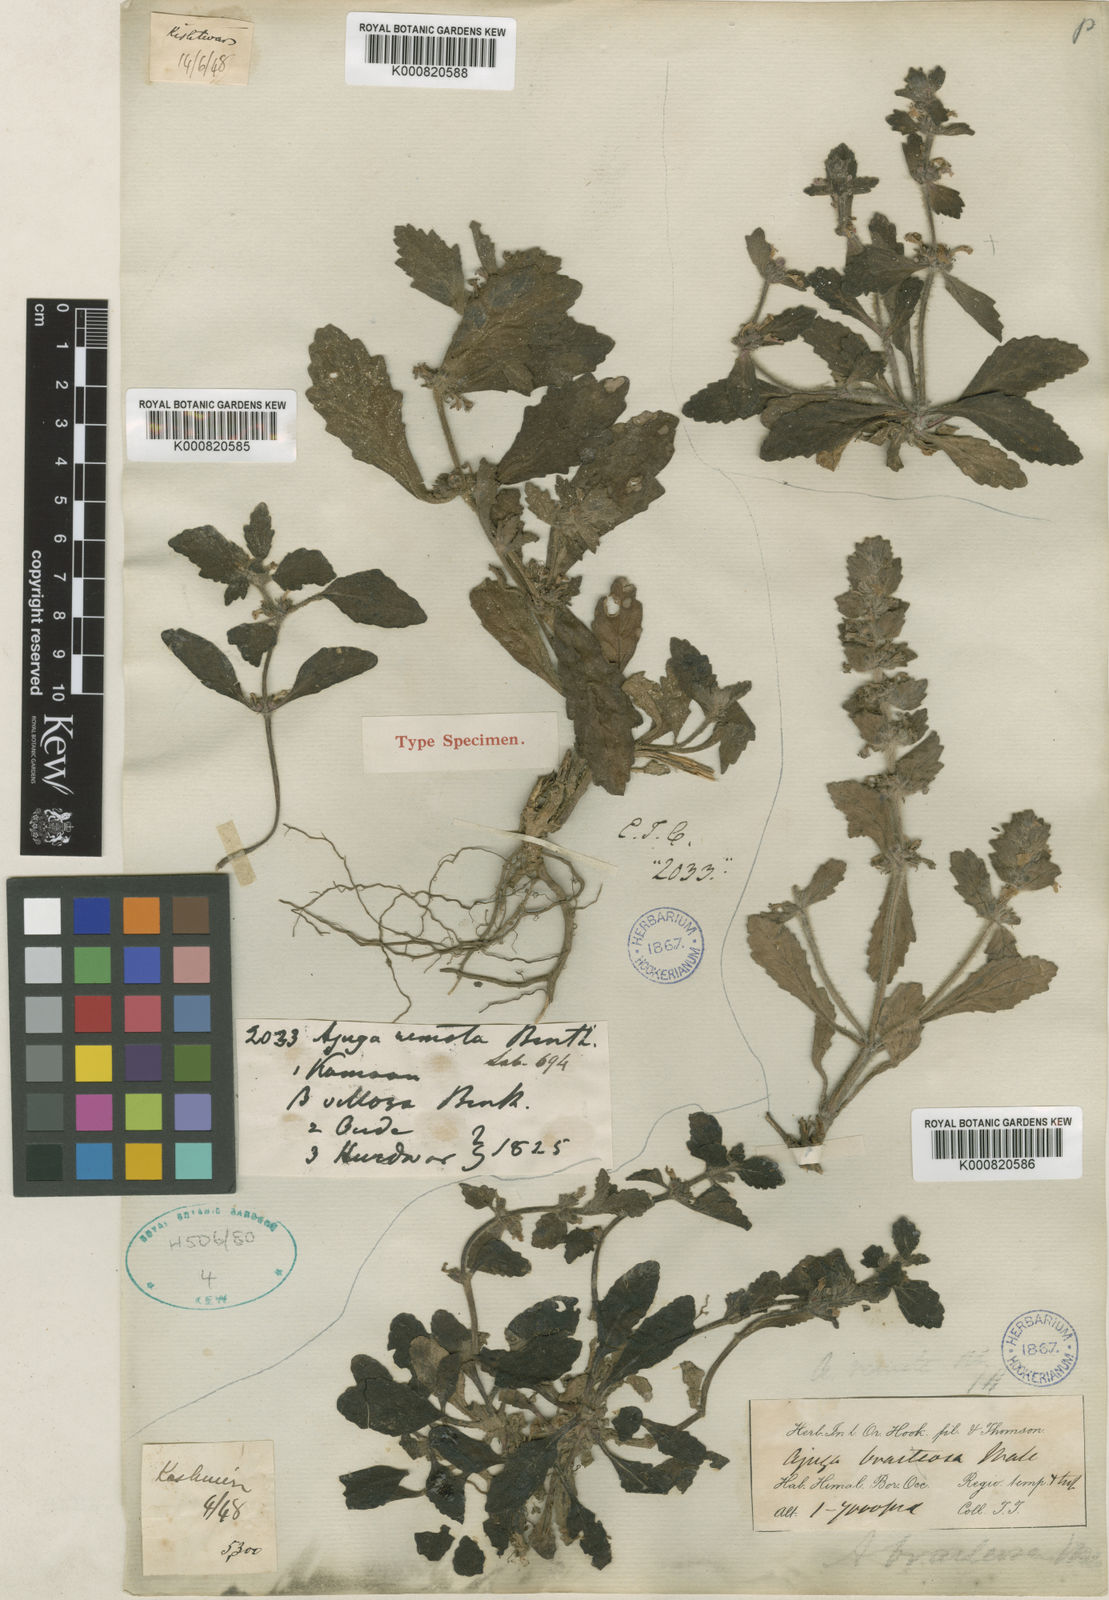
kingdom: Plantae
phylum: Tracheophyta
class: Magnoliopsida
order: Lamiales
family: Lamiaceae
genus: Ajuga
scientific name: Ajuga integrifolia
